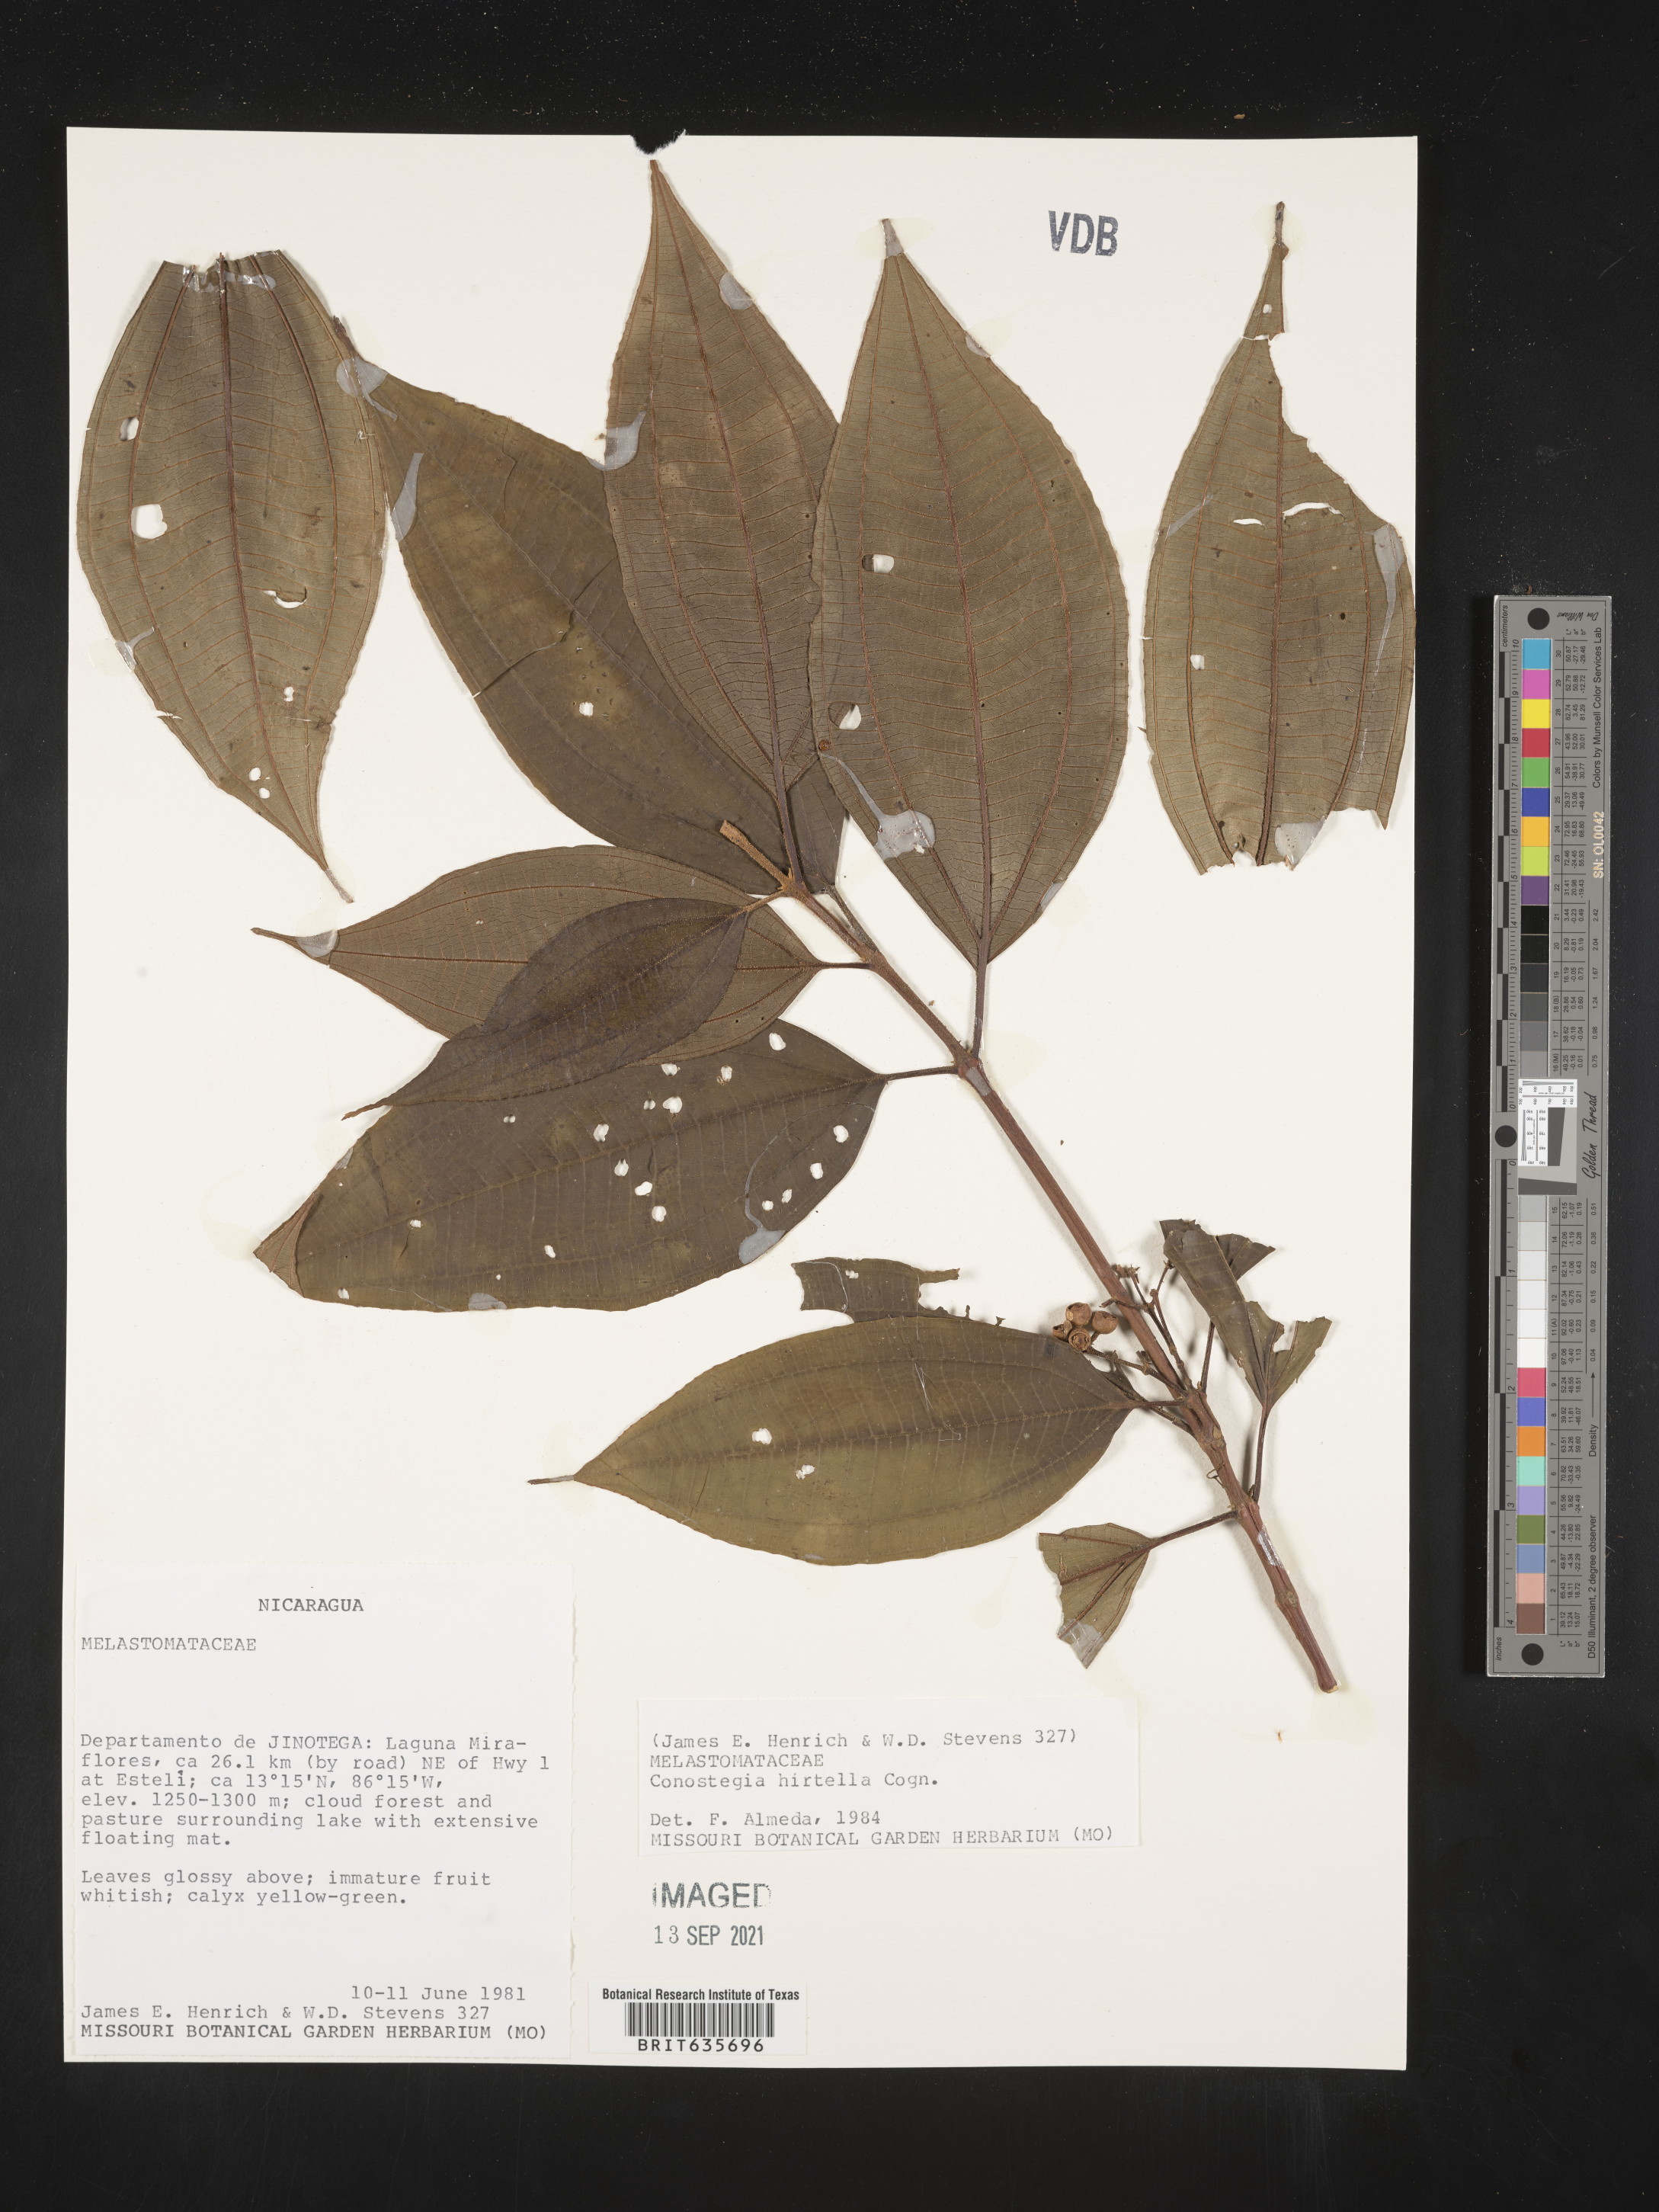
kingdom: Plantae
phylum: Tracheophyta
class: Magnoliopsida
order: Myrtales
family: Melastomataceae
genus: Miconia
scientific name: Miconia
